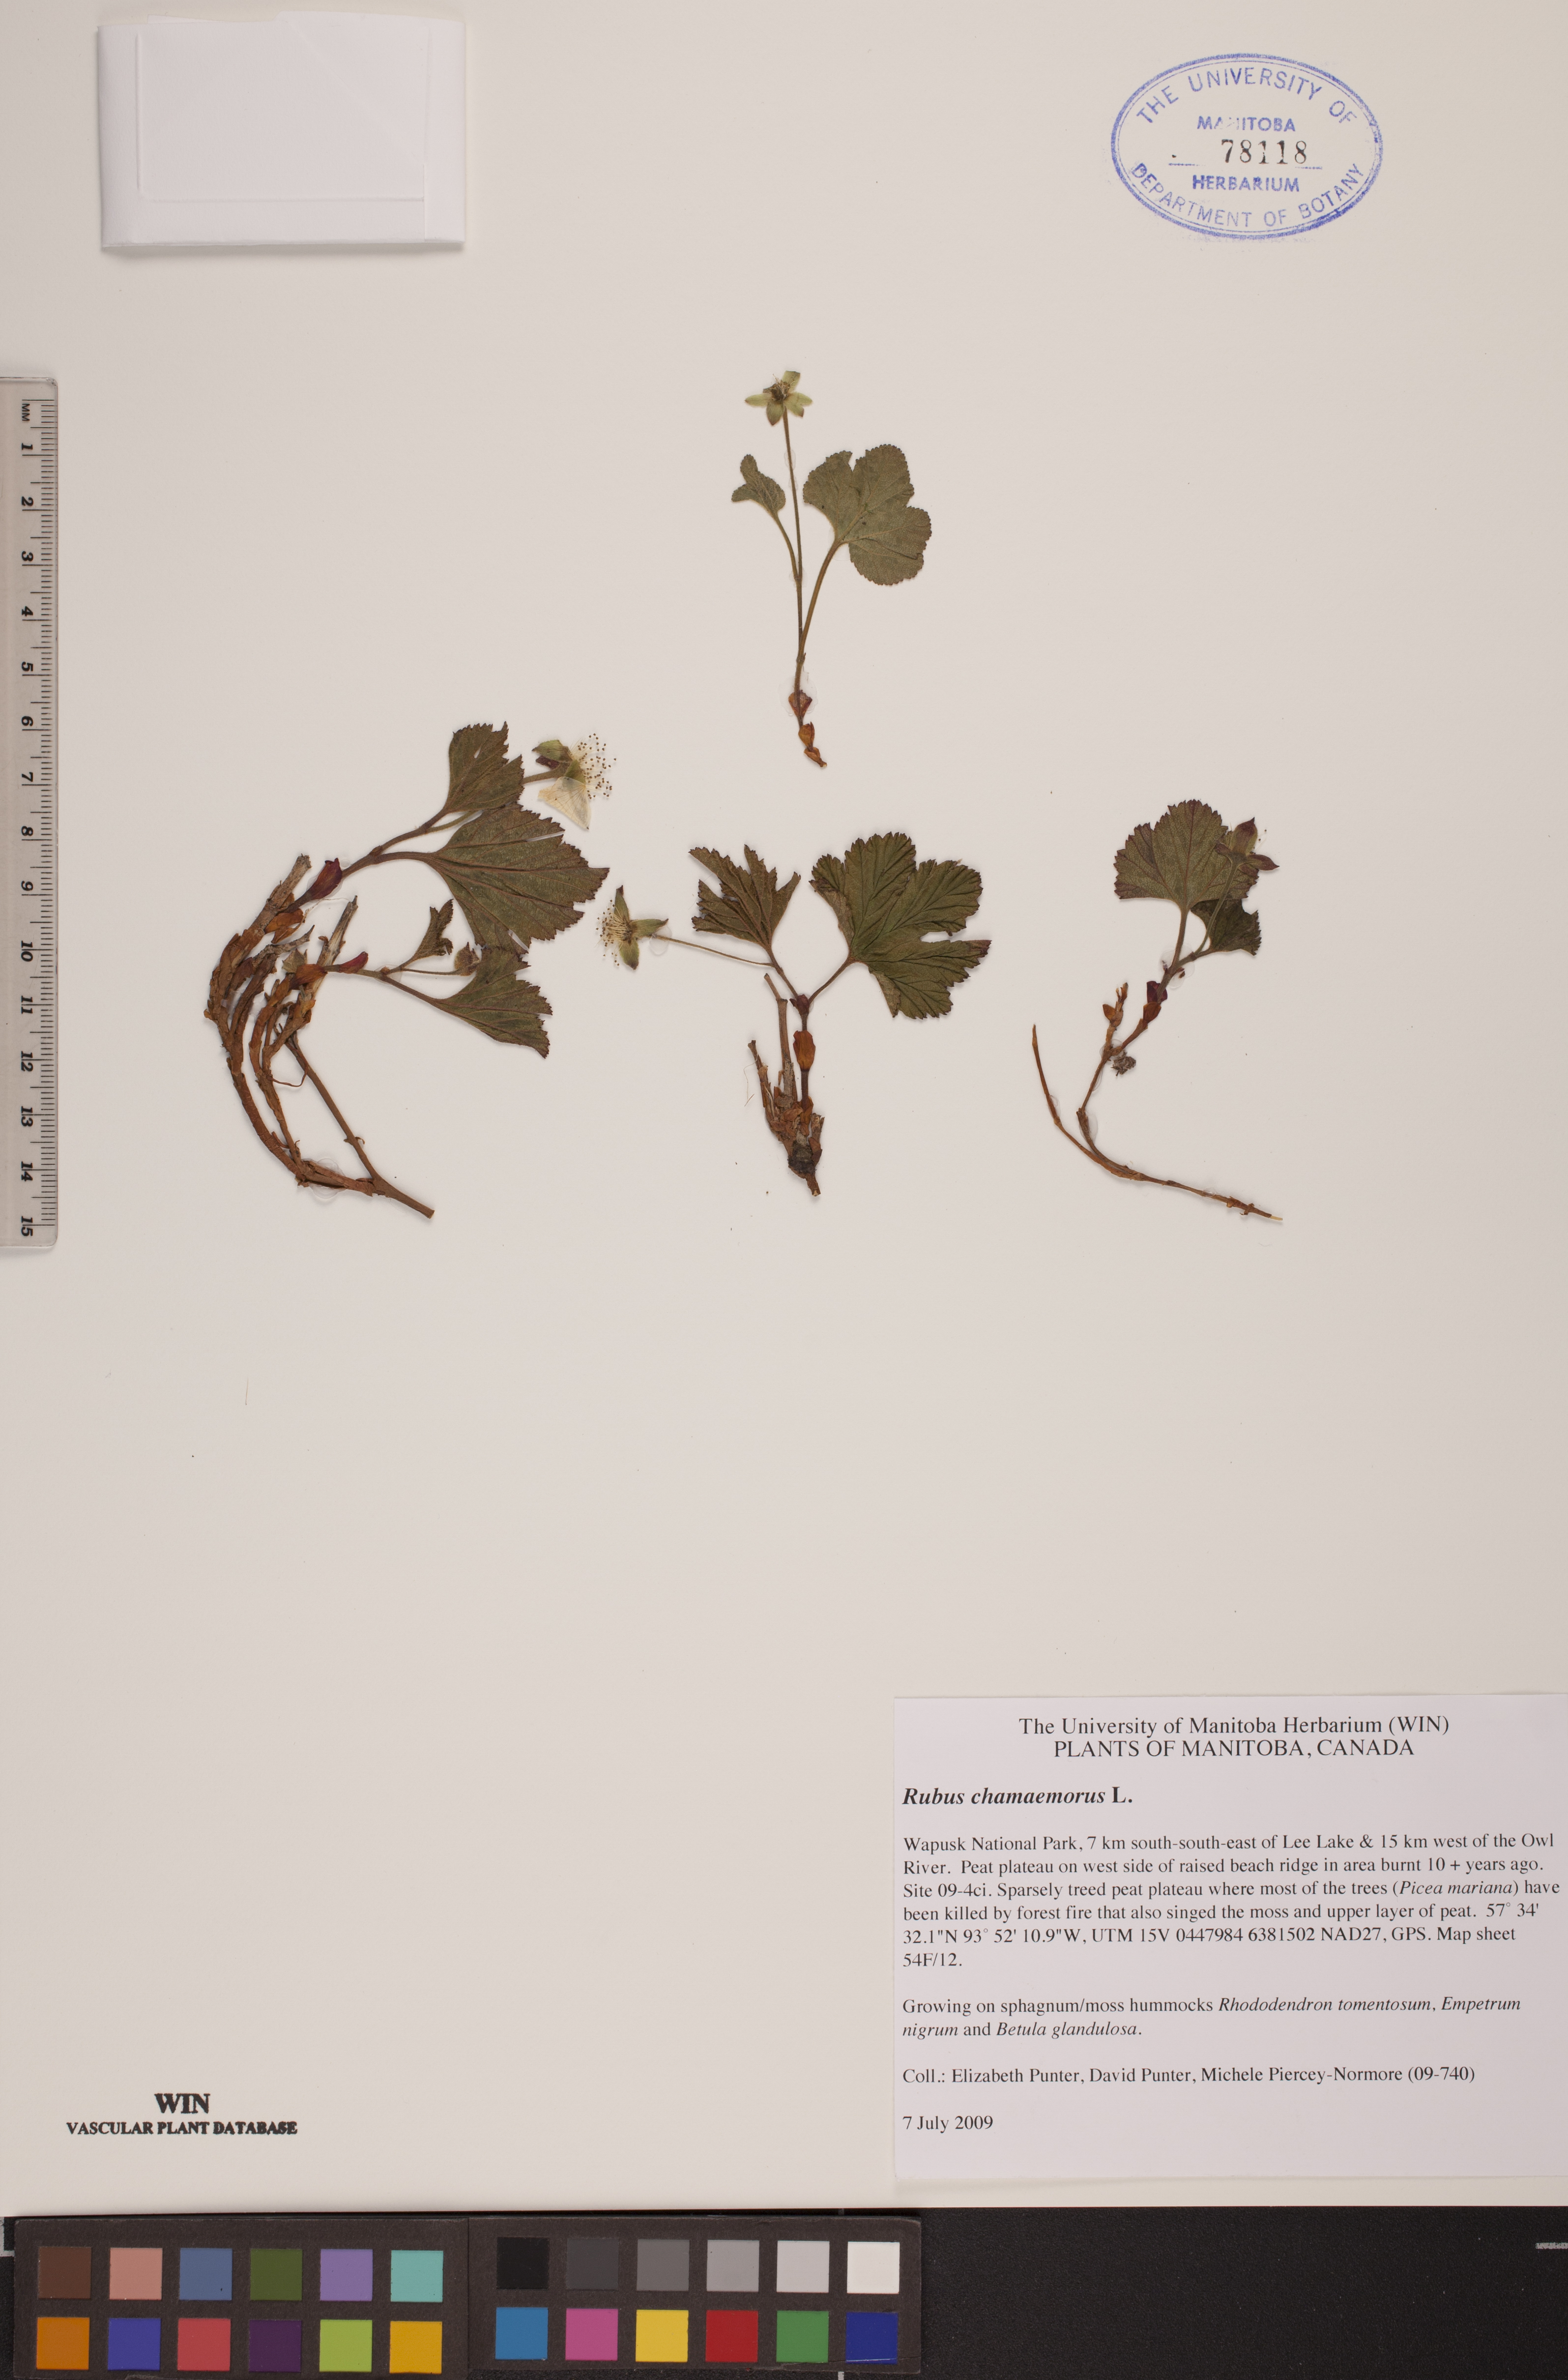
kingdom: Plantae
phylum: Tracheophyta
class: Magnoliopsida
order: Rosales
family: Rosaceae
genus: Rubus
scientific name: Rubus chamaemorus
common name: Cloudberry
